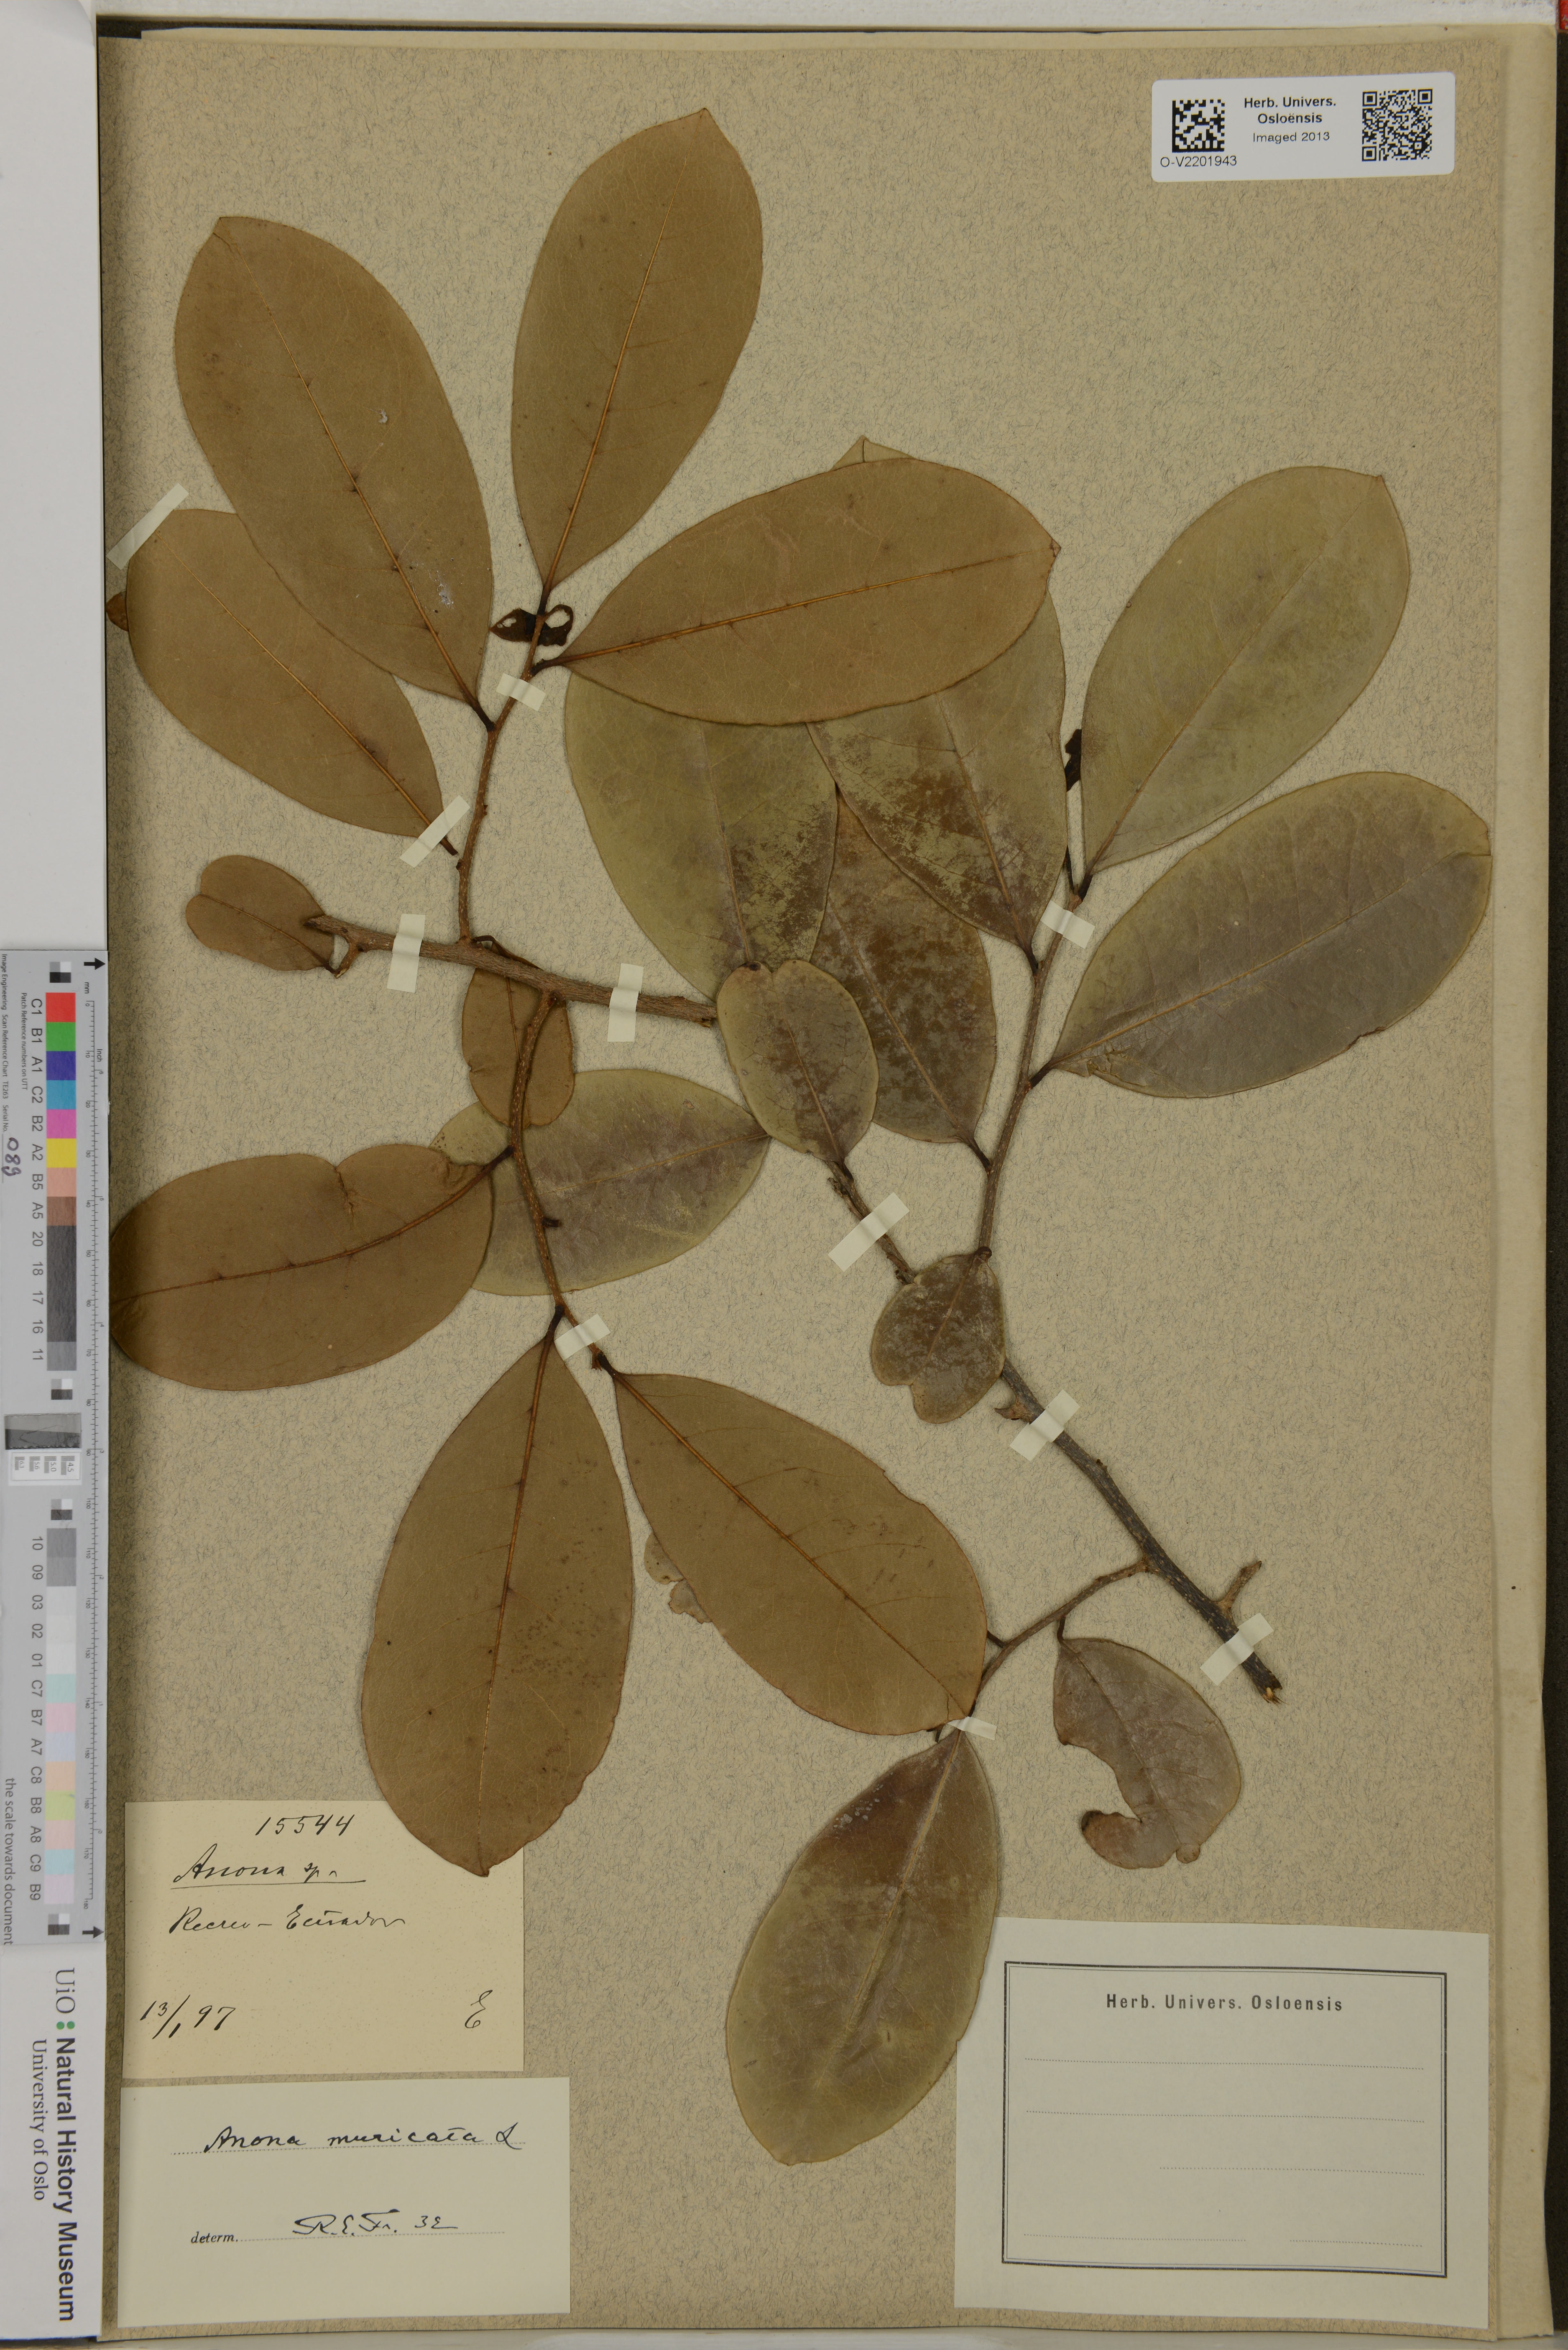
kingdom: Plantae
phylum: Tracheophyta
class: Magnoliopsida
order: Magnoliales
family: Annonaceae
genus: Annona
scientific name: Annona muricata
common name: Soursop
